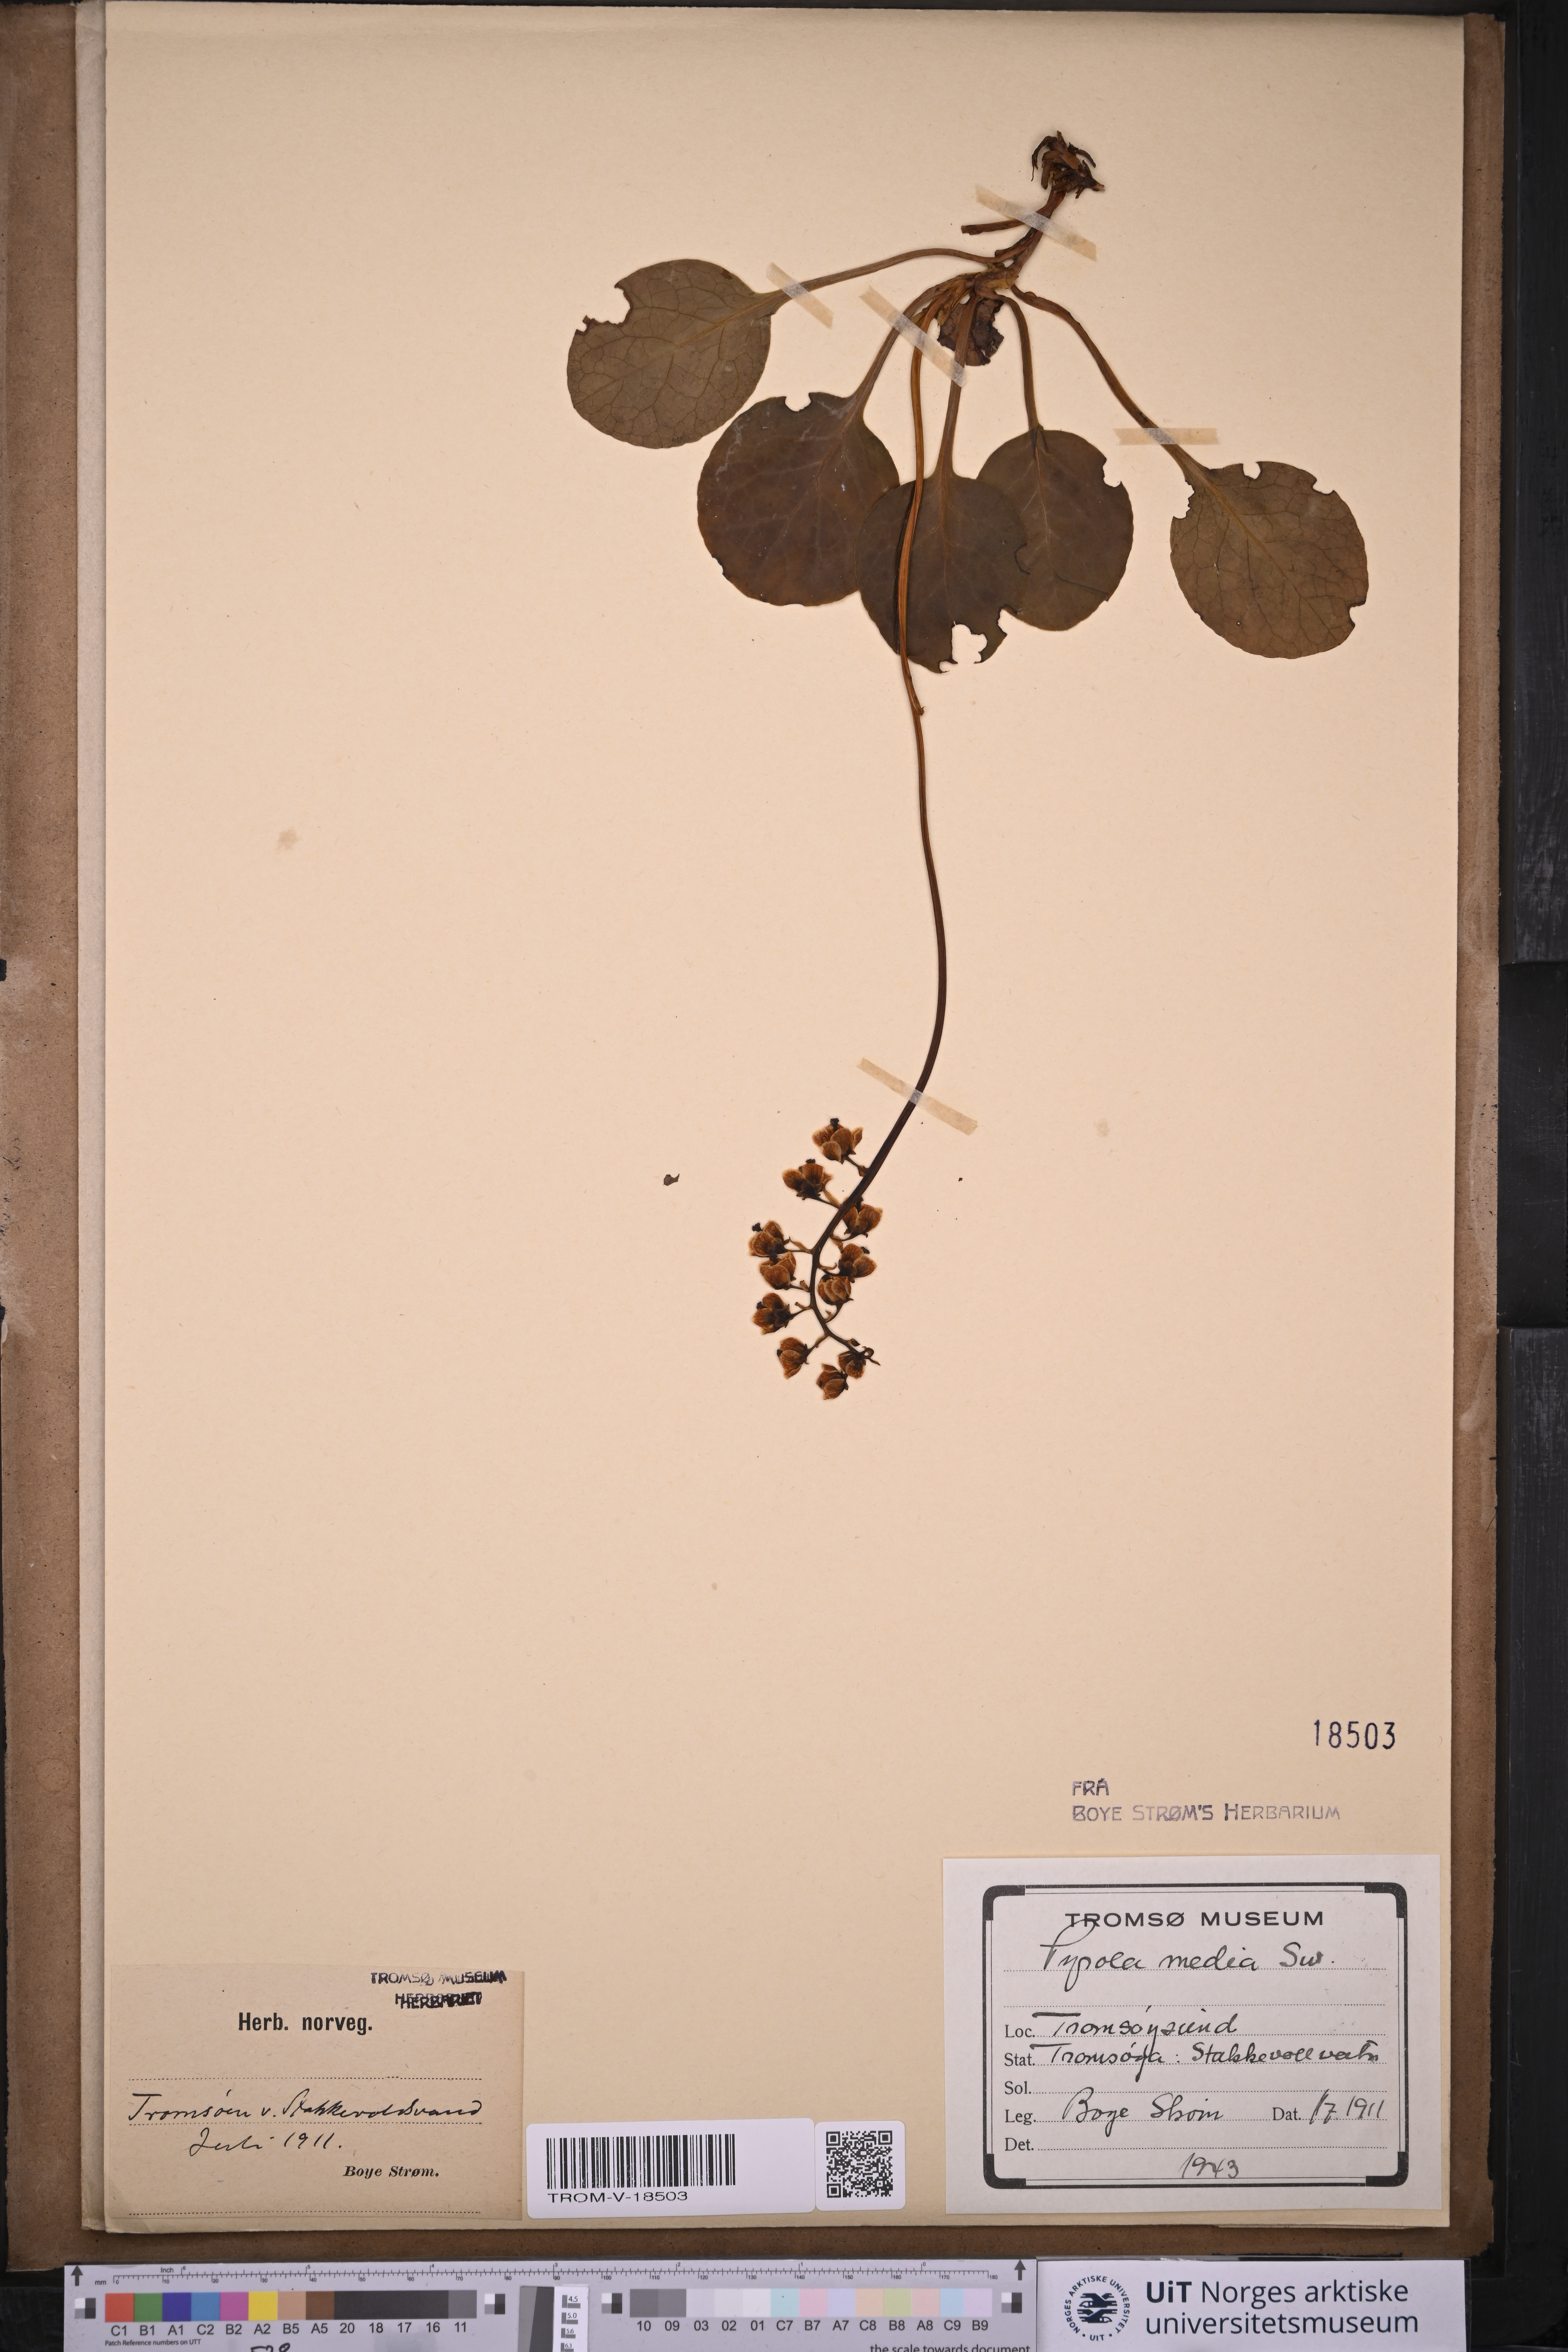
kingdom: Plantae
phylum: Tracheophyta
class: Magnoliopsida
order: Ericales
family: Ericaceae
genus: Pyrola
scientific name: Pyrola media
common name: Intermediate wintergreen
